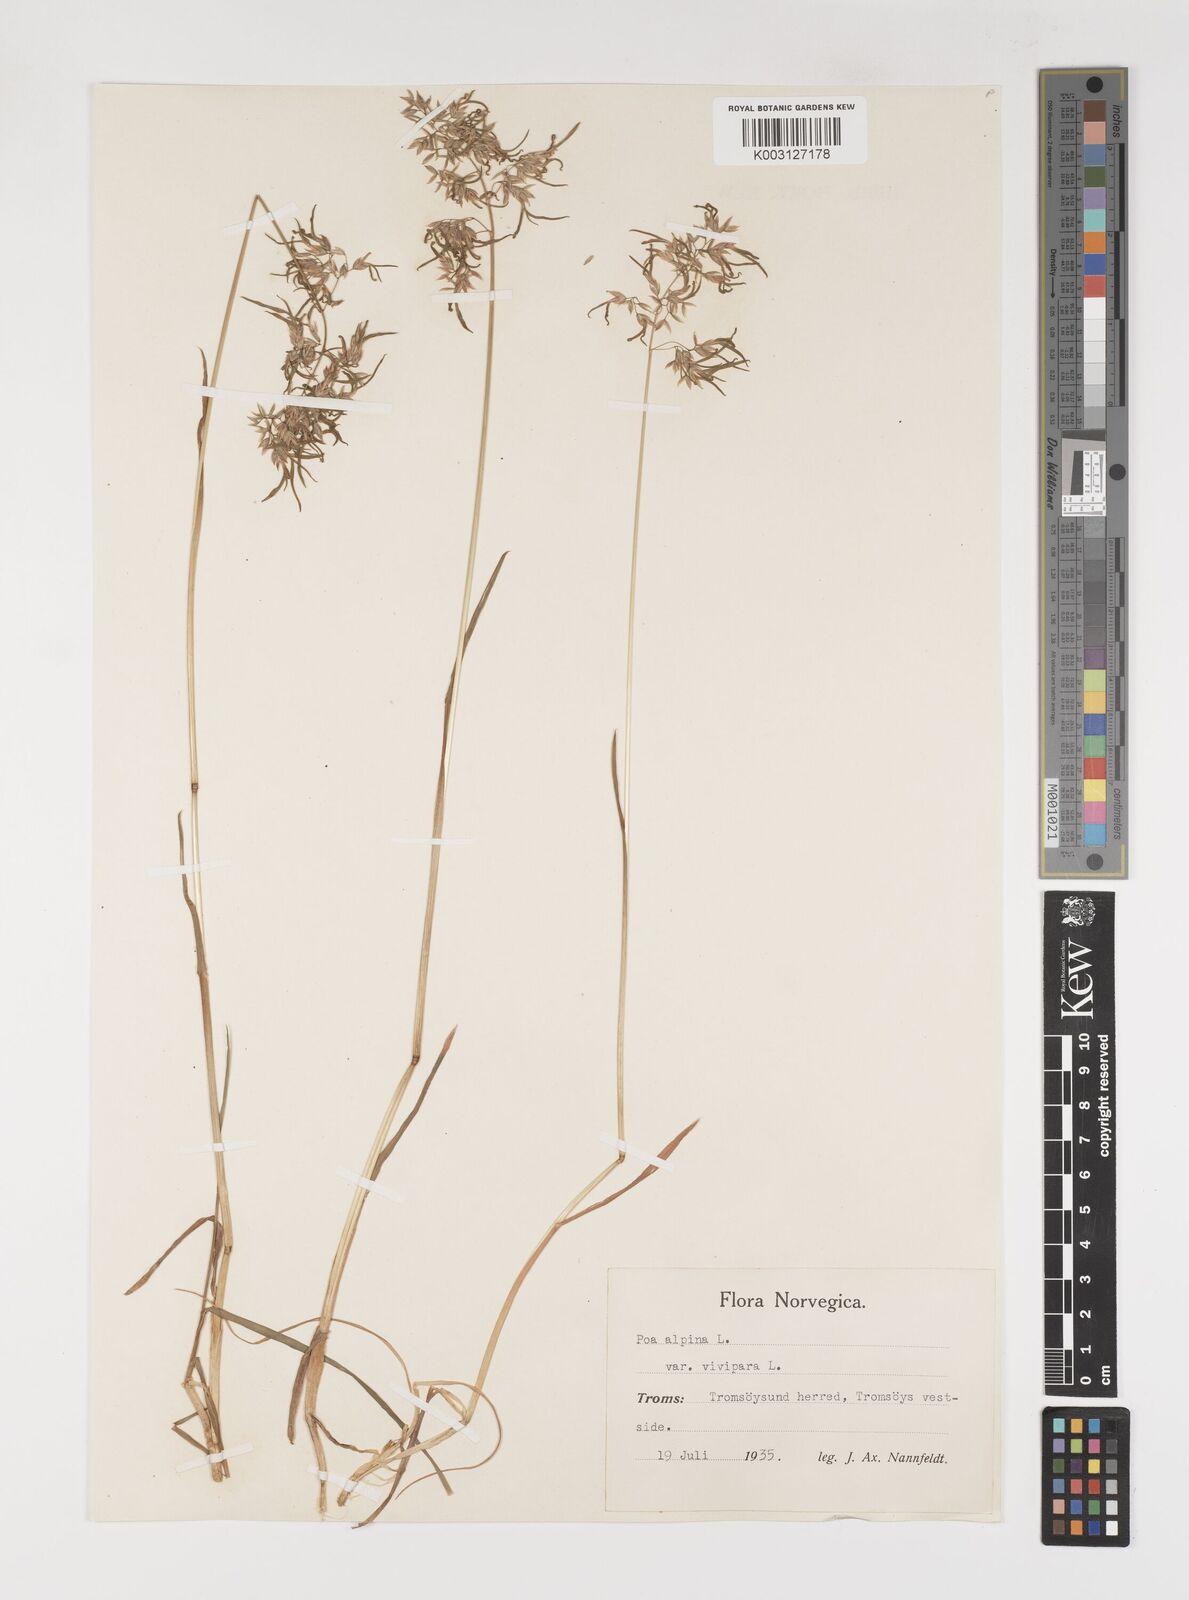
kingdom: Plantae
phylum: Tracheophyta
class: Liliopsida
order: Poales
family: Poaceae
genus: Poa
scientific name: Poa alpina
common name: Alpine bluegrass
